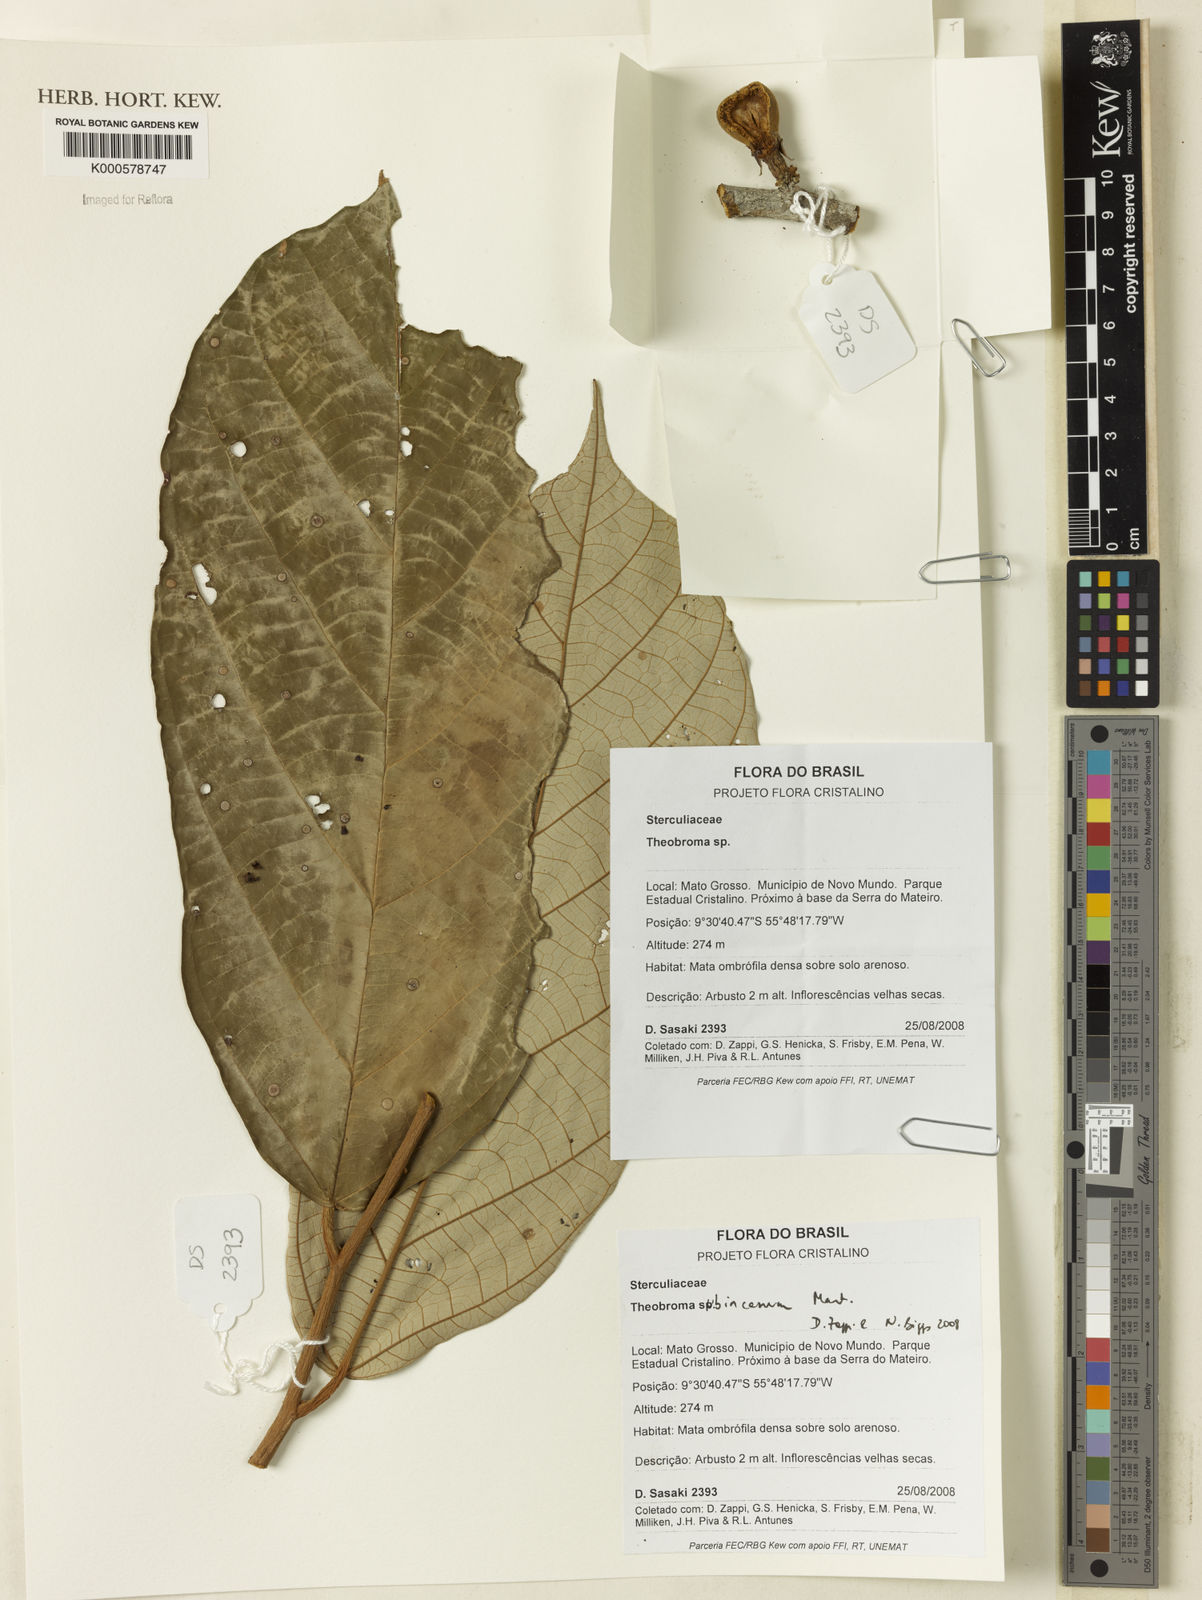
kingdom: Plantae
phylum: Tracheophyta
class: Magnoliopsida
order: Malvales
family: Malvaceae
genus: Theobroma
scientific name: Theobroma subincanum
